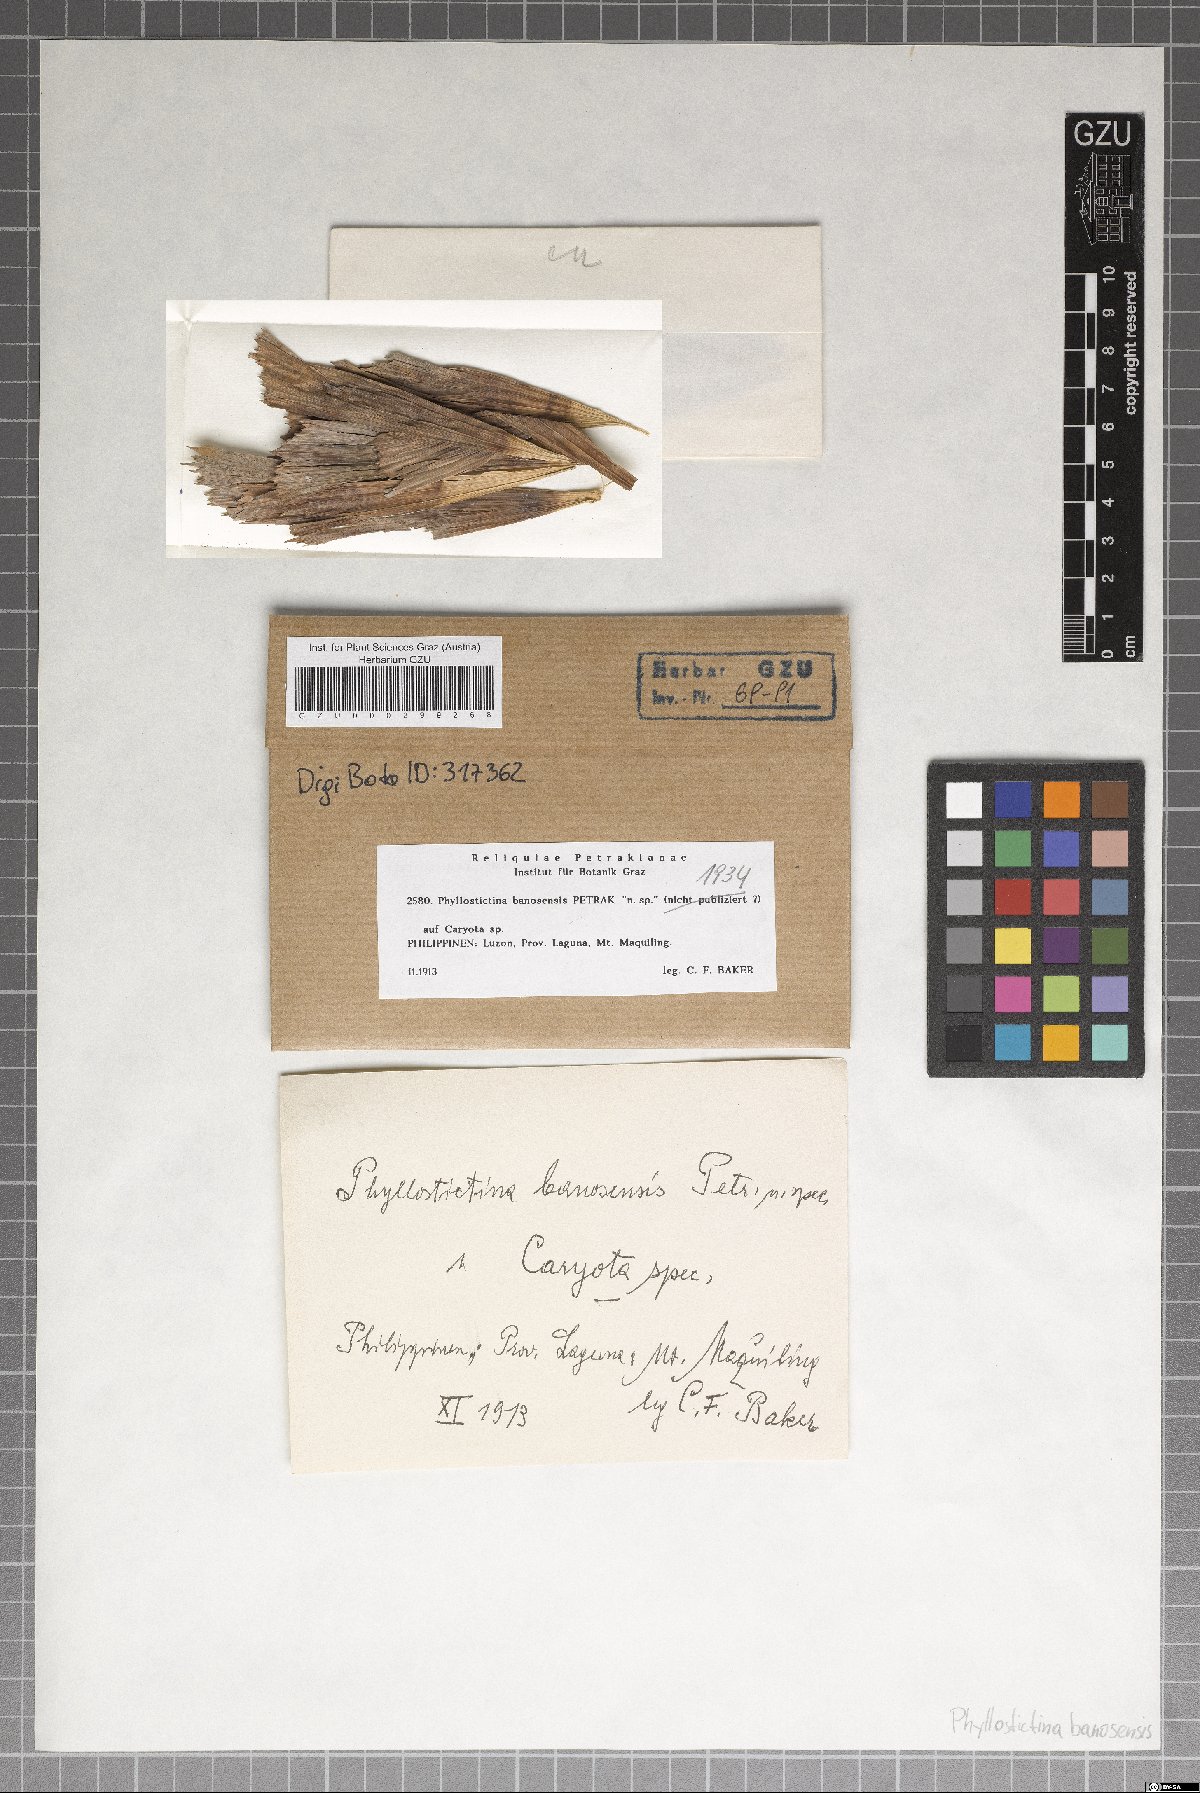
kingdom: Fungi
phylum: Ascomycota
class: Dothideomycetes
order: Botryosphaeriales
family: Phyllostictaceae
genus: Phyllostictina
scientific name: Phyllostictina banosensis
